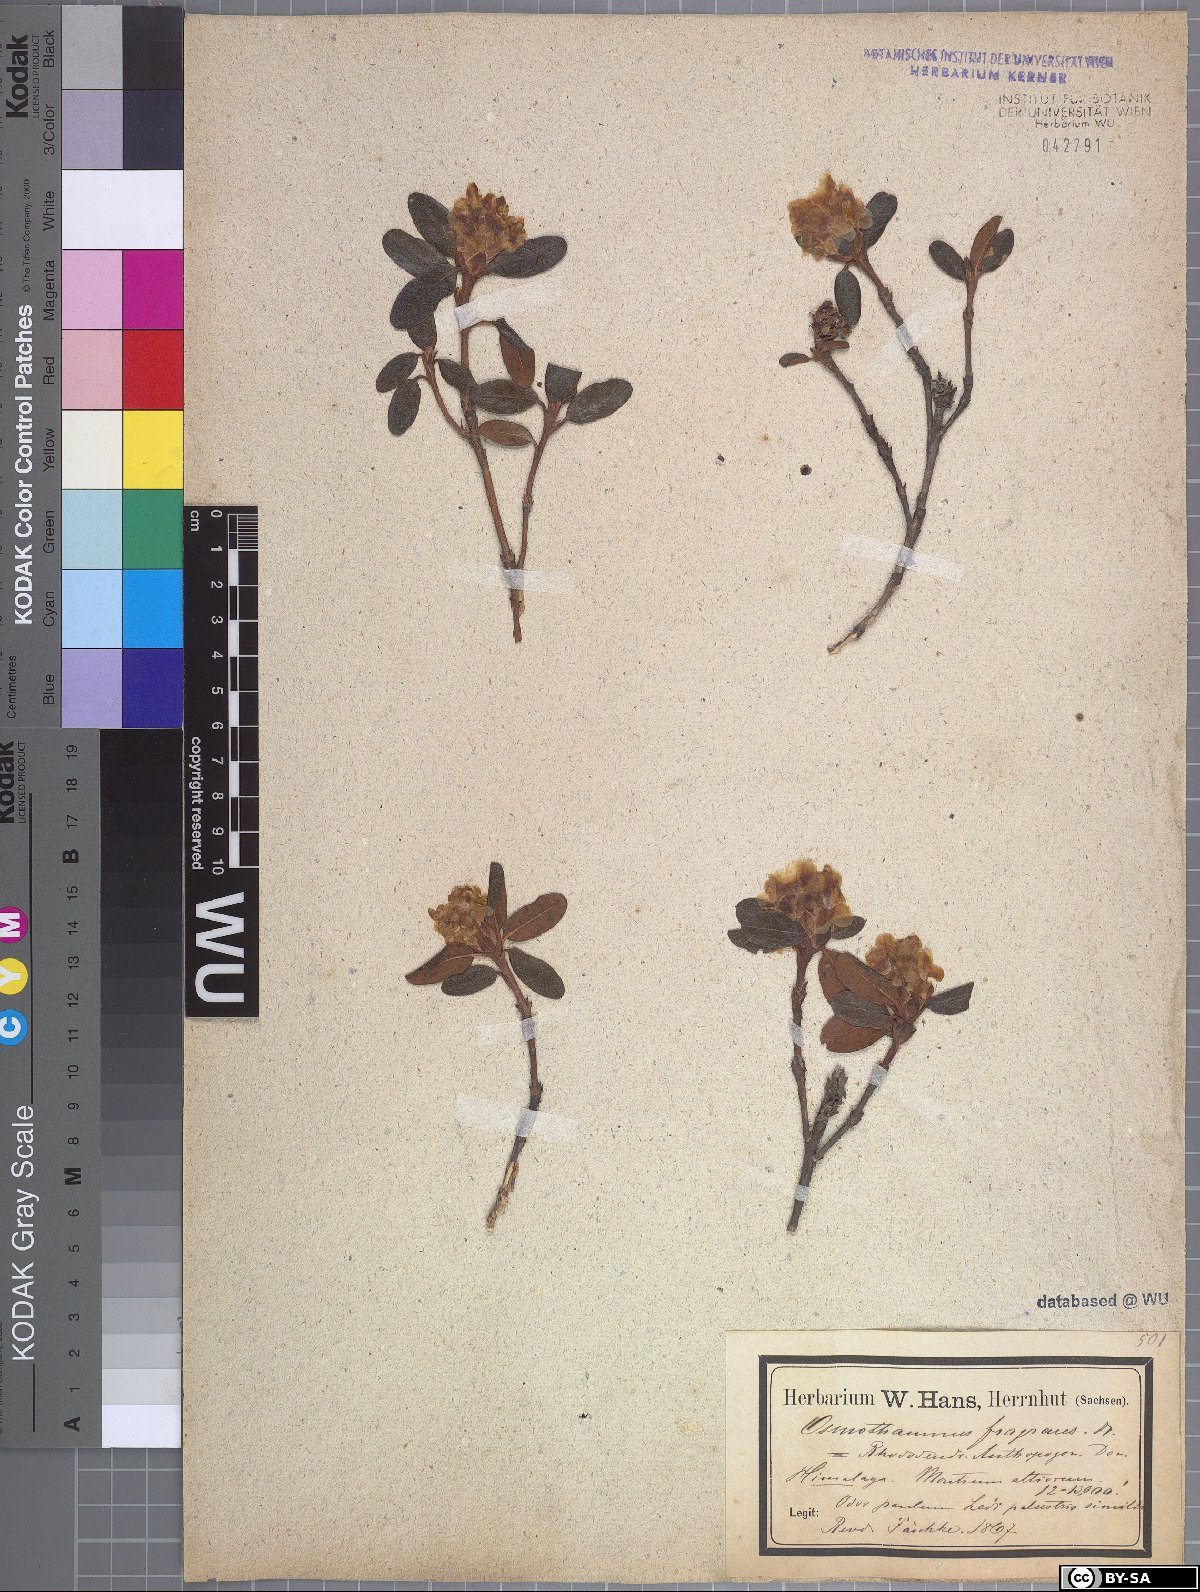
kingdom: Plantae
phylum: Tracheophyta
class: Magnoliopsida
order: Ericales
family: Ericaceae
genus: Rhododendron
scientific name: Rhododendron anthopogon
